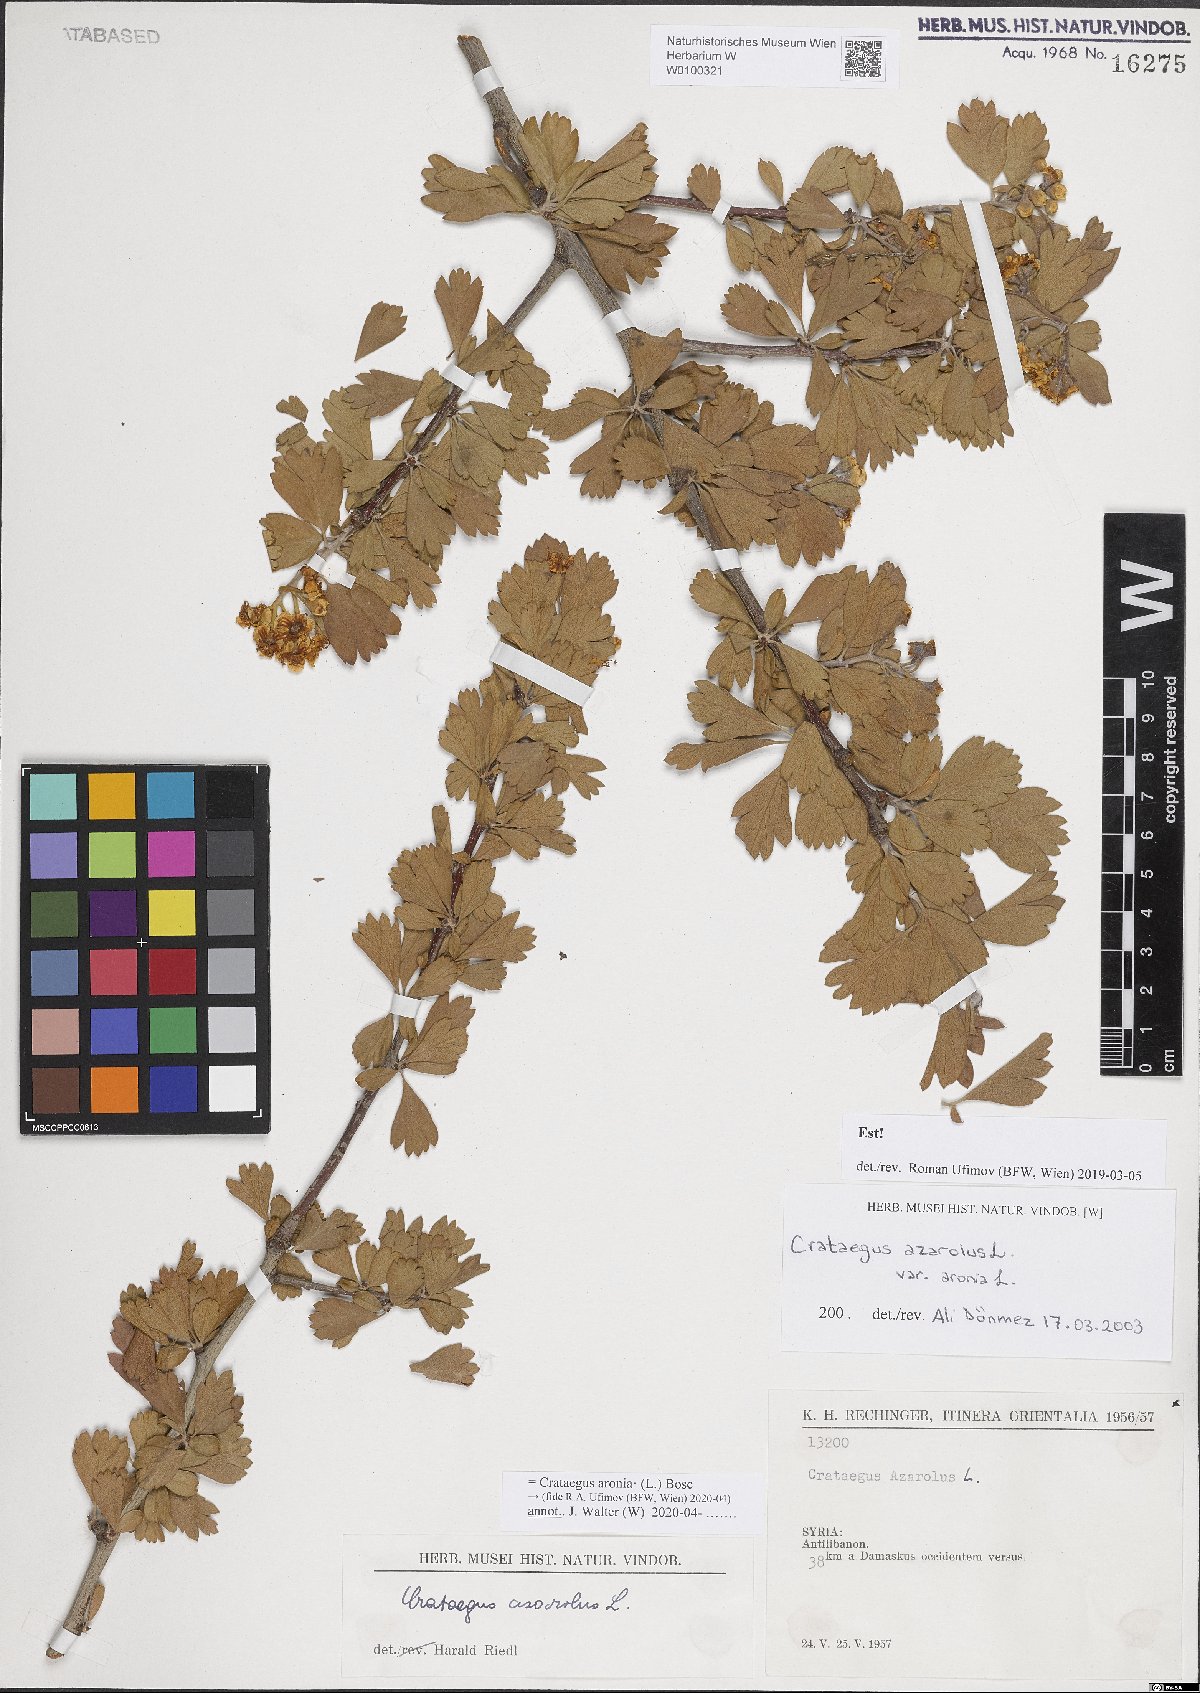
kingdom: Plantae
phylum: Tracheophyta
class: Magnoliopsida
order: Rosales
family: Rosaceae
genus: Crataegus
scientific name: Crataegus azarolus
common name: Azarole
